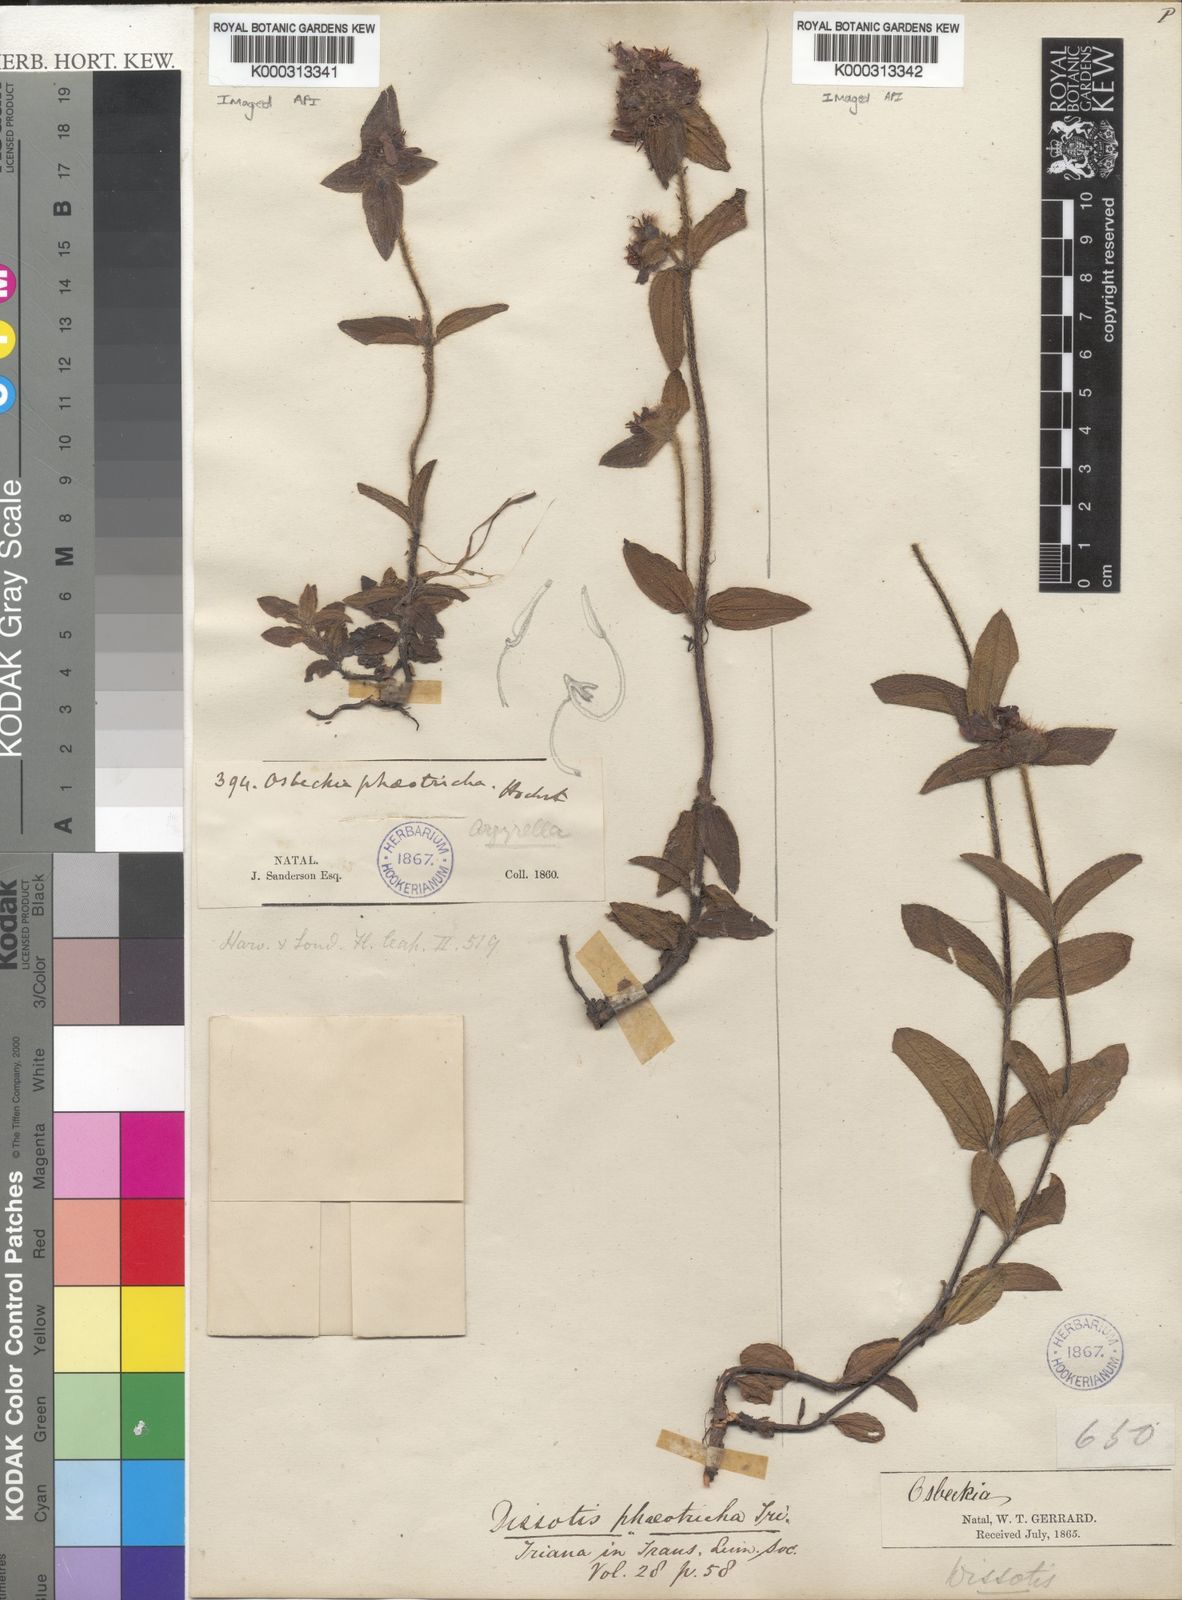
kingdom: Plantae
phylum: Tracheophyta
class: Magnoliopsida
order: Myrtales
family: Melastomataceae
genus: Dissotis
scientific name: Dissotis
